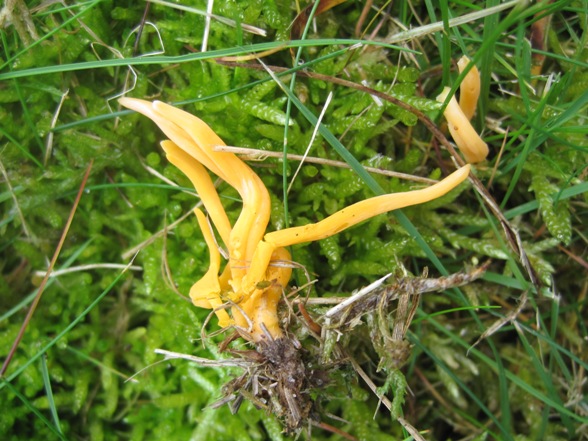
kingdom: Fungi
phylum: Basidiomycota
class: Agaricomycetes
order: Agaricales
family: Clavariaceae
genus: Clavulinopsis
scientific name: Clavulinopsis luteoalba
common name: abrikos-køllesvamp
